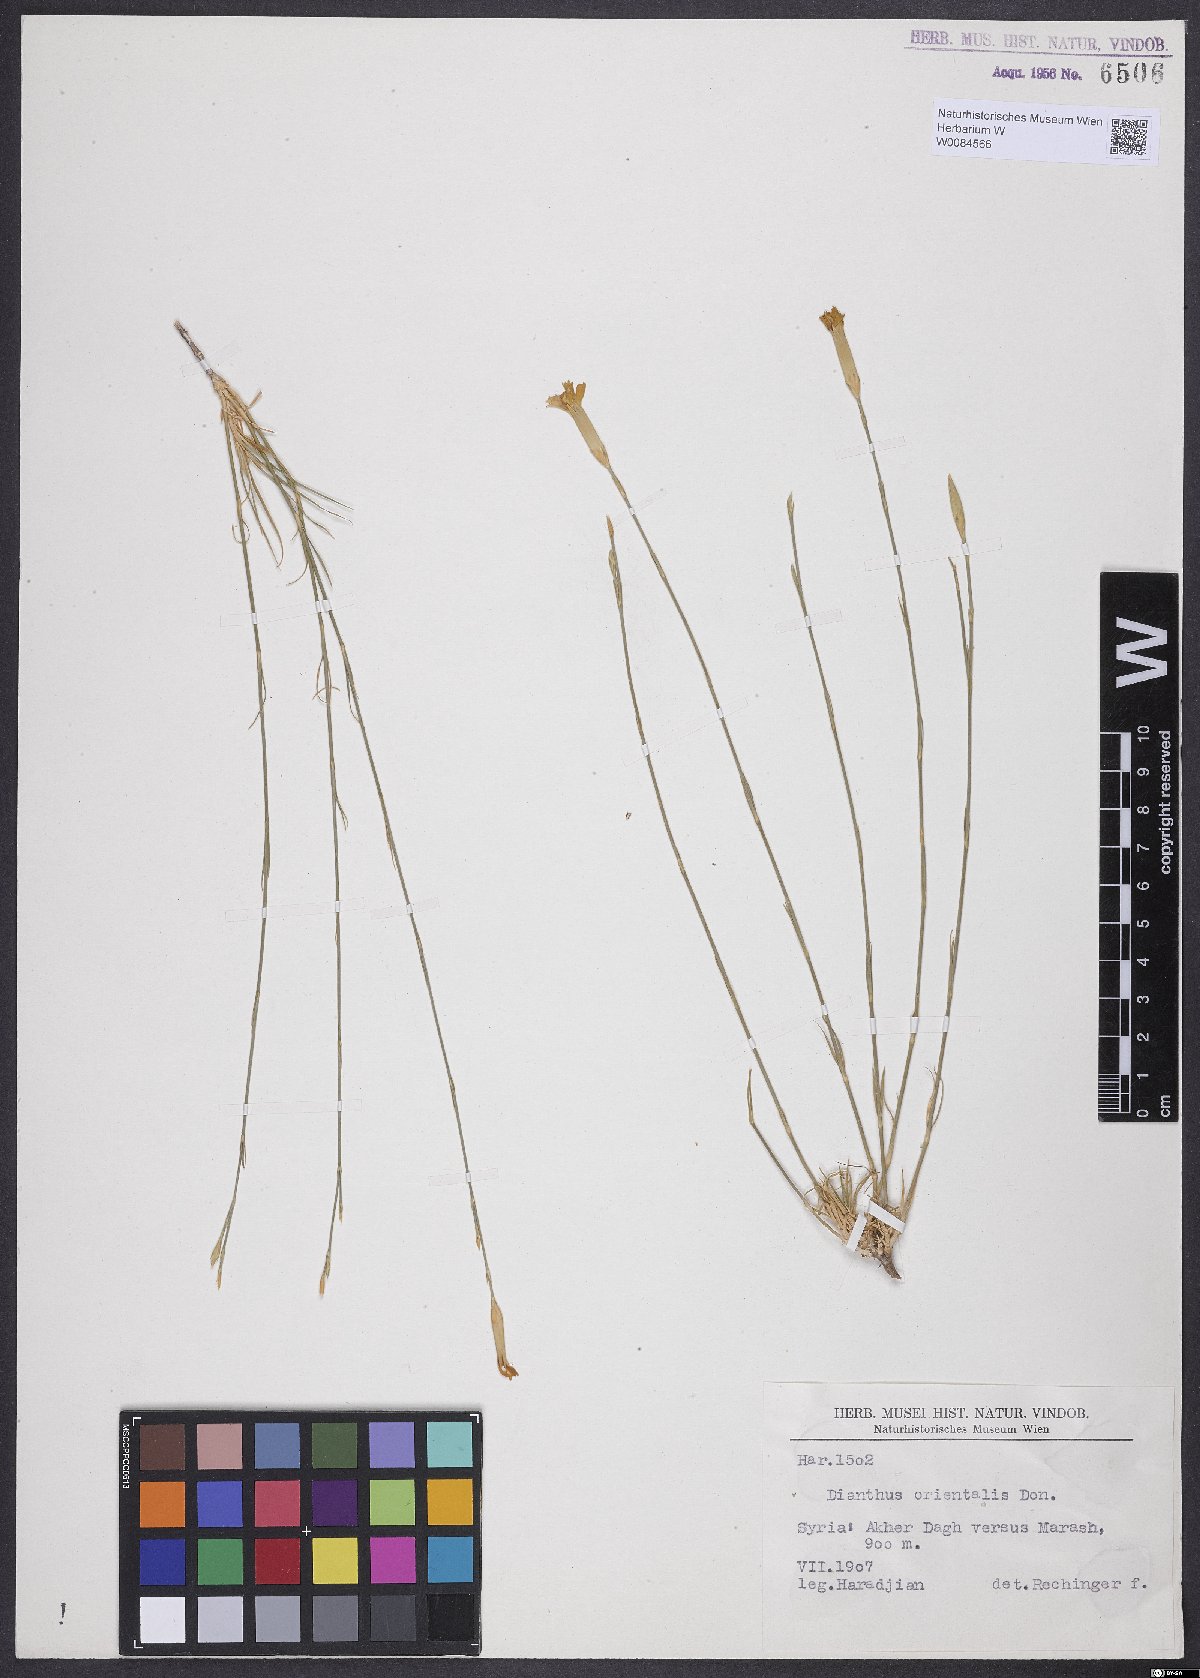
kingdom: Plantae
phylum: Tracheophyta
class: Magnoliopsida
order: Caryophyllales
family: Caryophyllaceae
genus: Dianthus
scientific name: Dianthus orientalis
